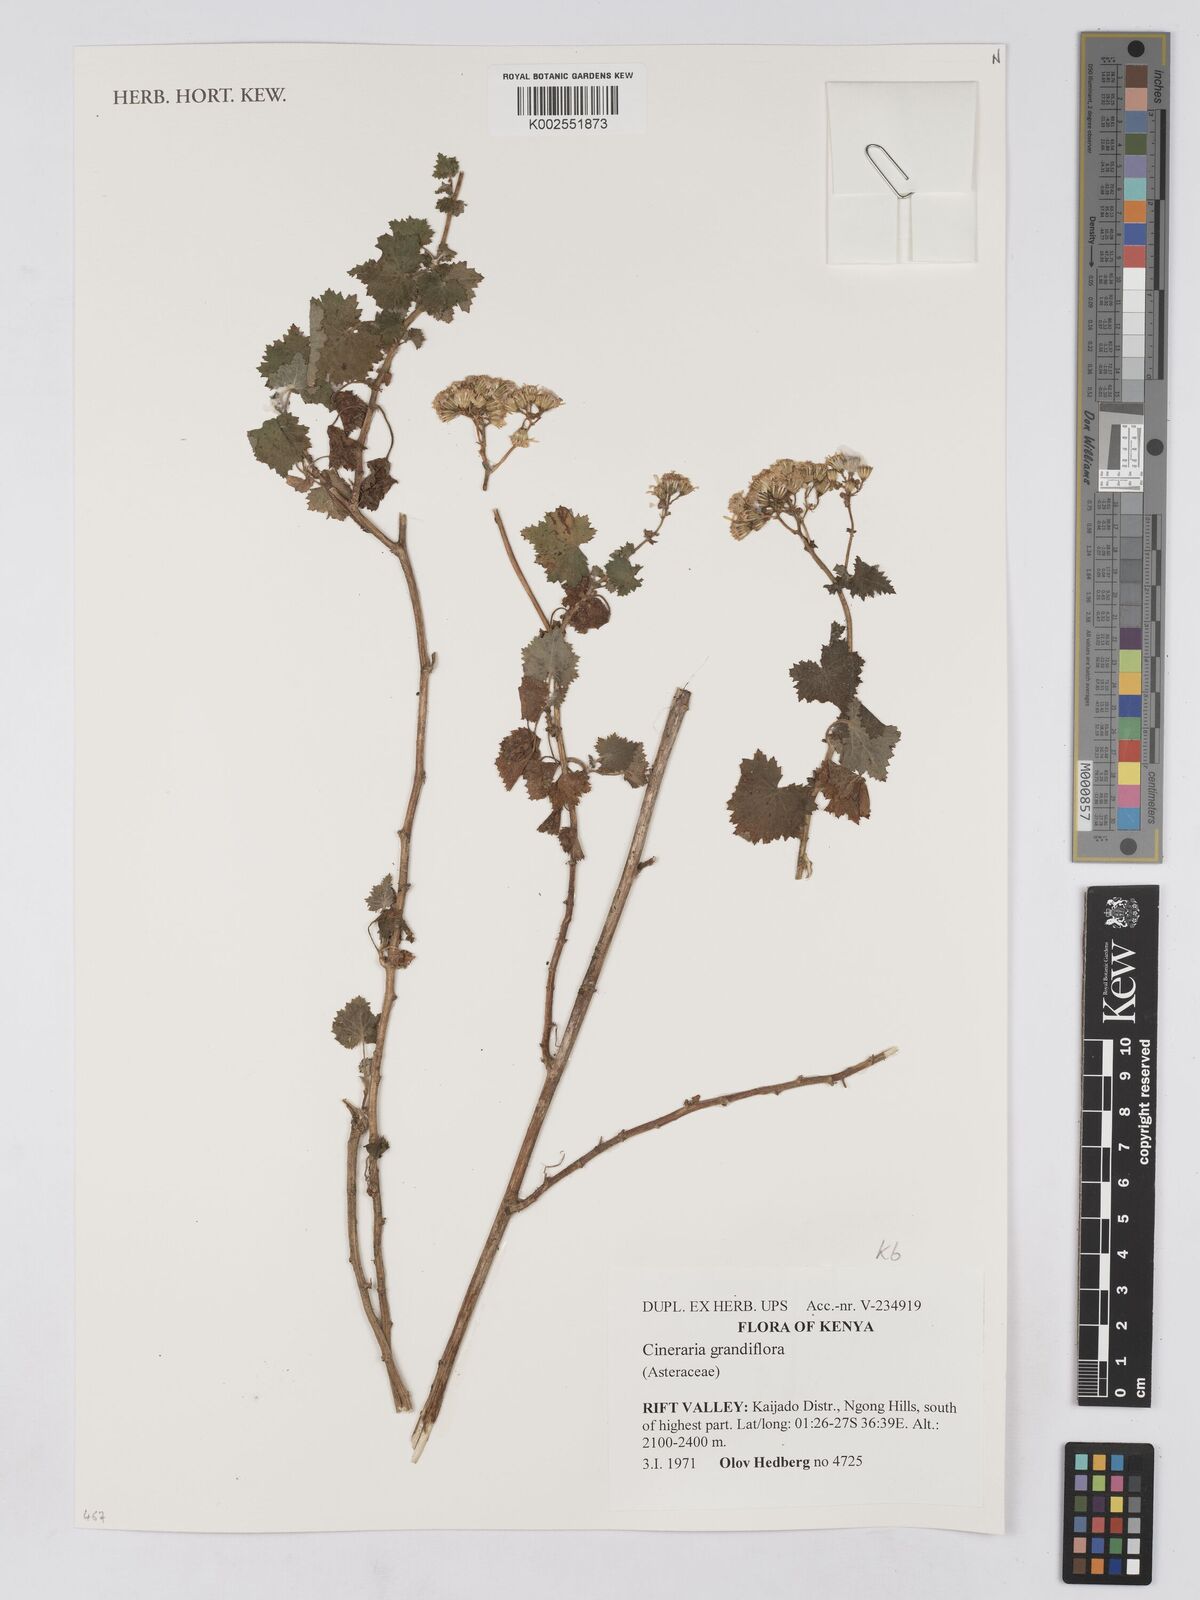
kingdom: Plantae
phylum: Tracheophyta
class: Magnoliopsida
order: Asterales
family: Asteraceae
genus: Cineraria
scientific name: Cineraria deltoidea
